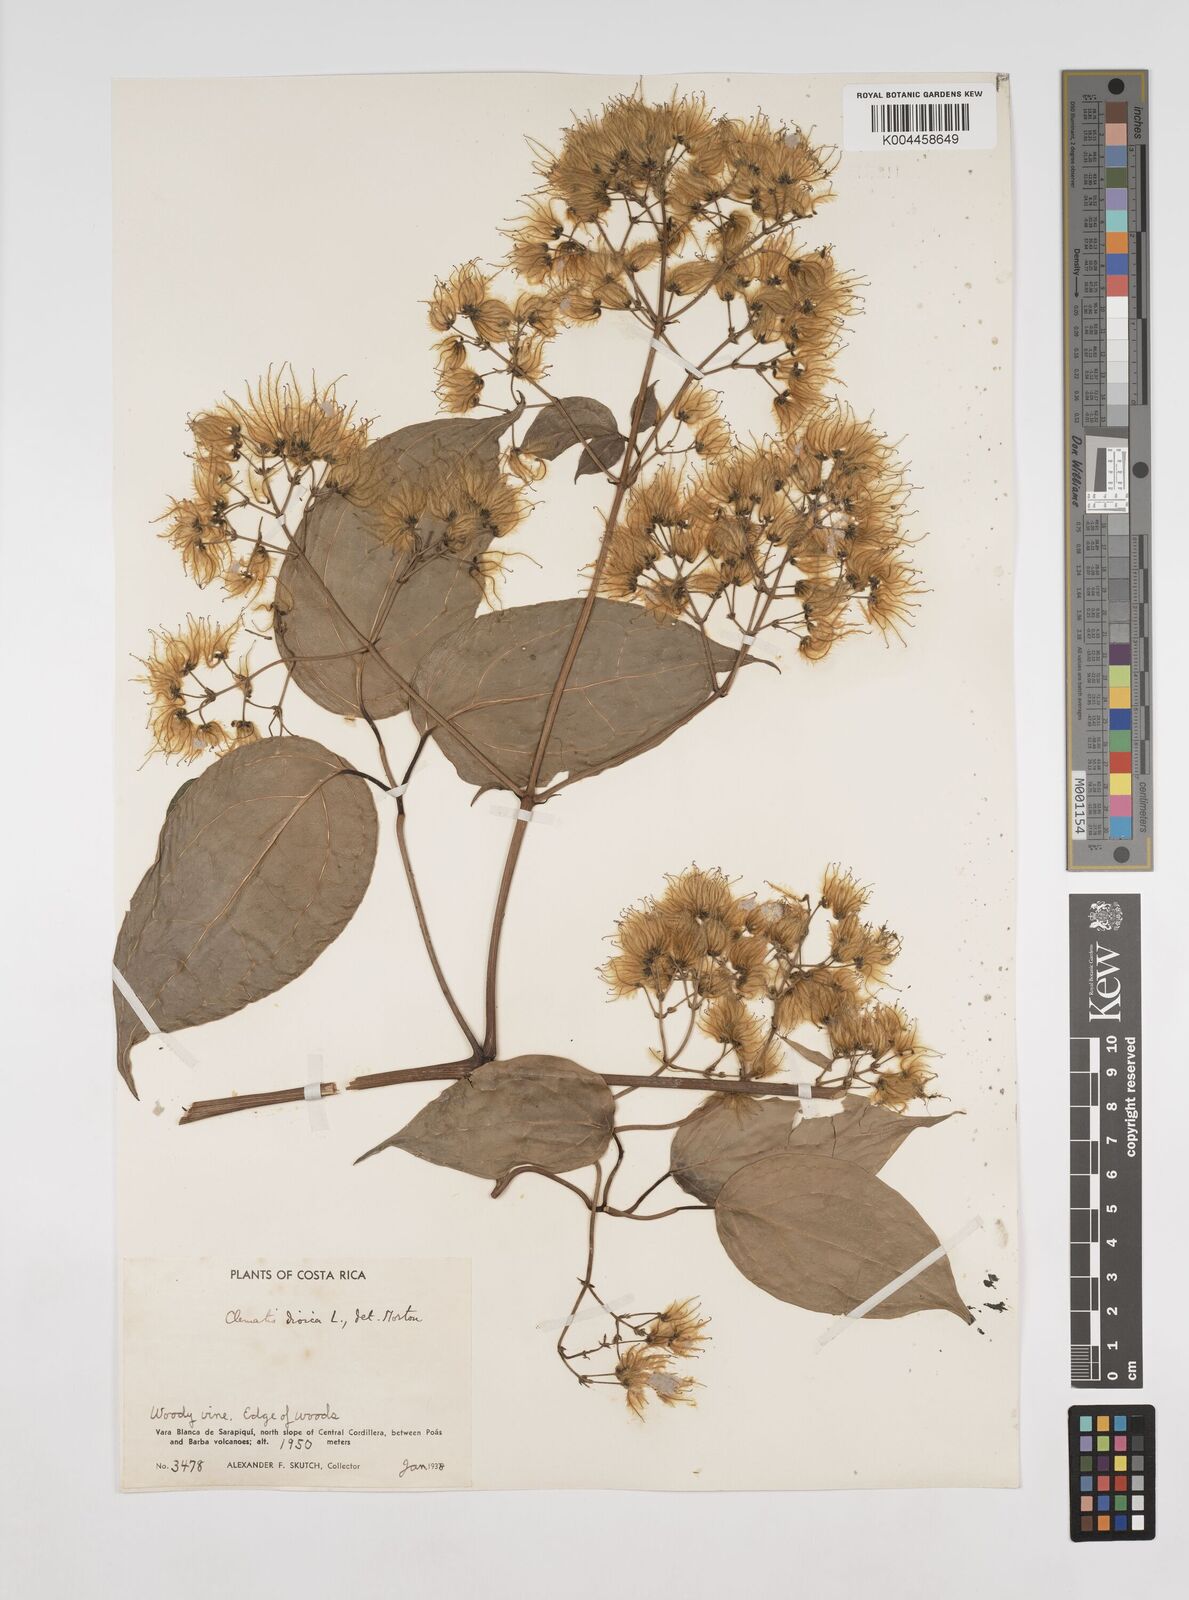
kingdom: Plantae
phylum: Tracheophyta
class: Magnoliopsida
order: Ranunculales
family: Ranunculaceae
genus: Clematis
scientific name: Clematis dioica
